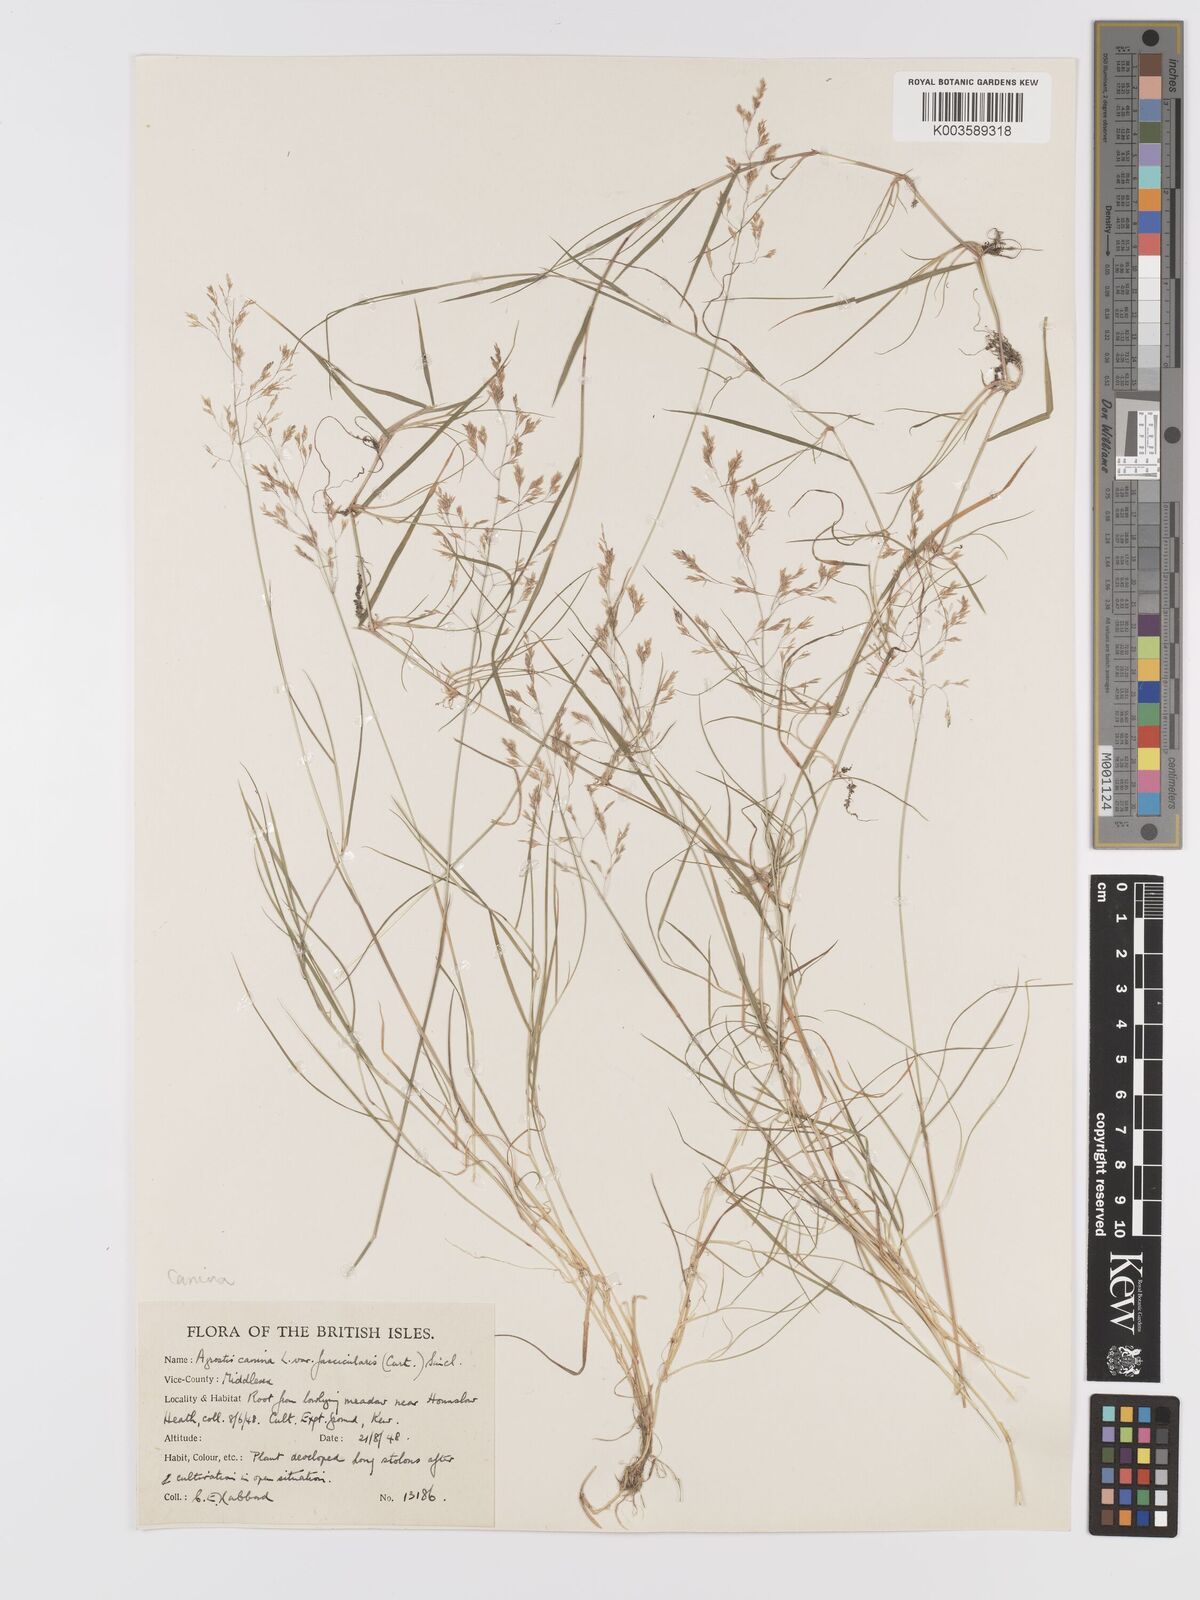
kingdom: Plantae
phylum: Tracheophyta
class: Liliopsida
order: Poales
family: Poaceae
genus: Agrostis
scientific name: Agrostis canina
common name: Velvet bent
